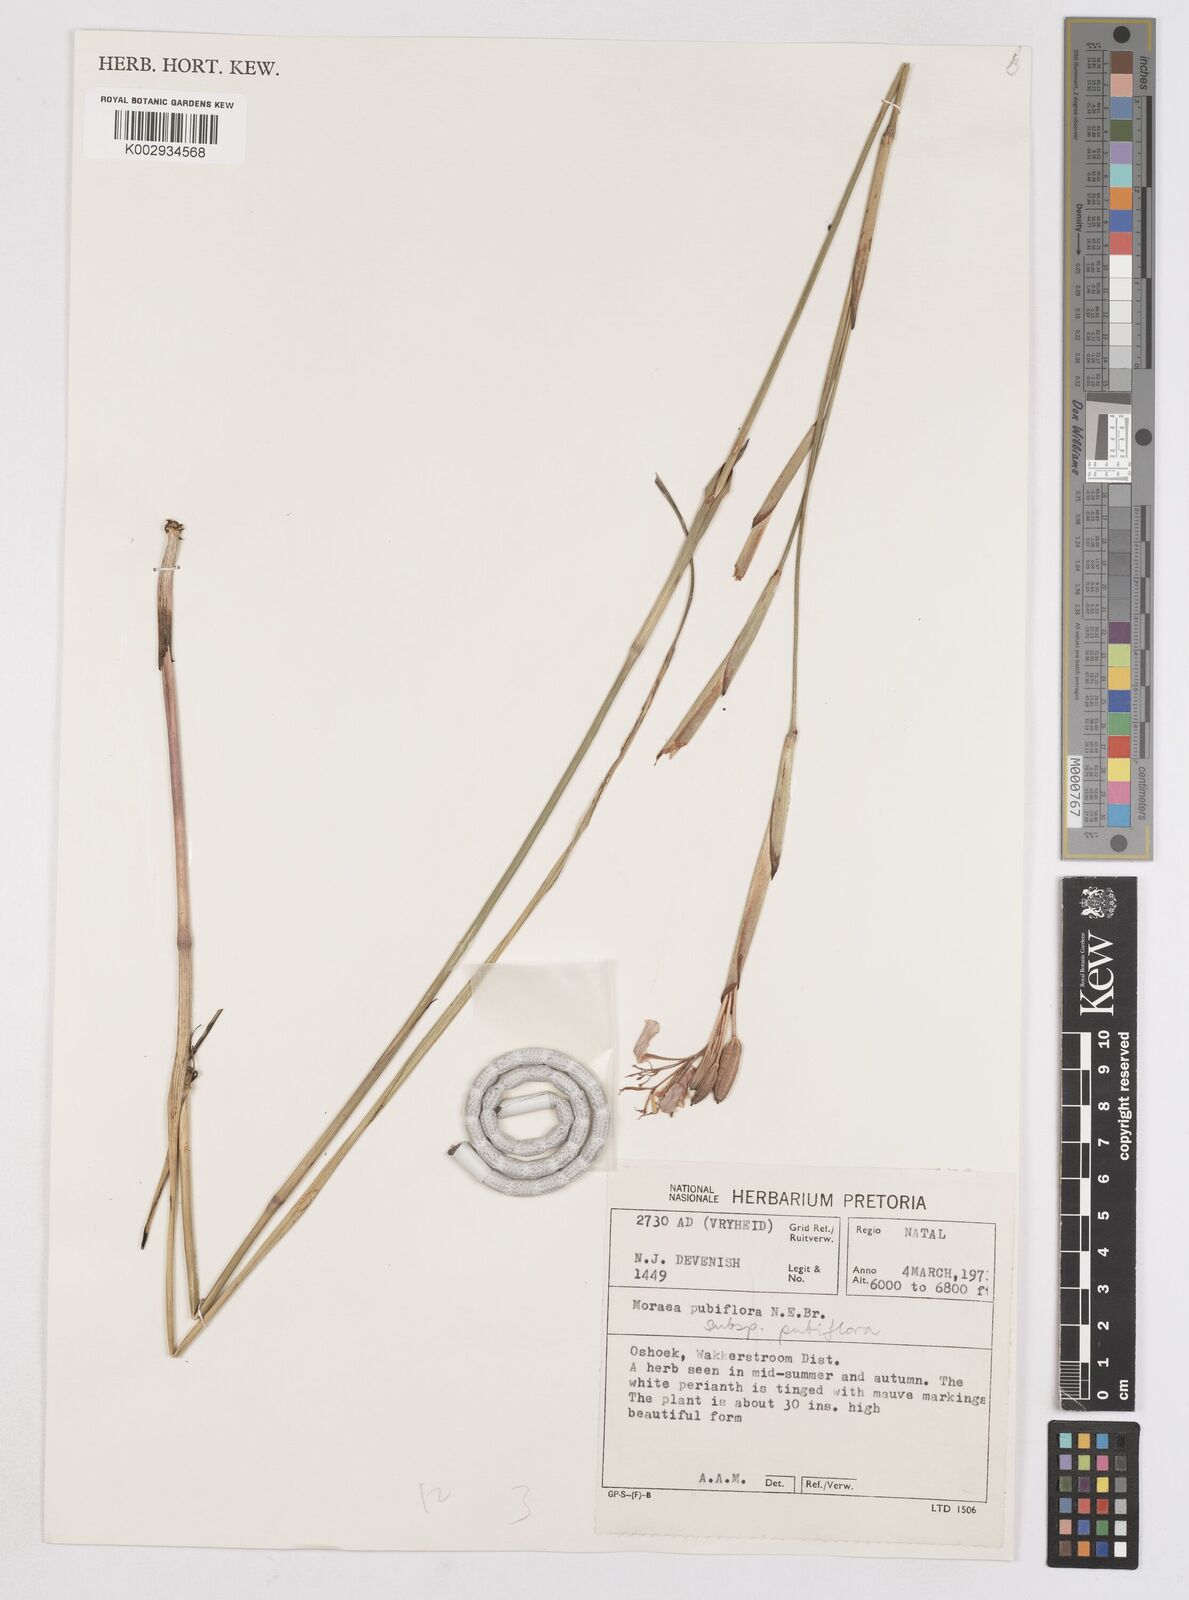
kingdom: Plantae
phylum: Tracheophyta
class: Liliopsida
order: Asparagales
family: Iridaceae
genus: Moraea
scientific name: Moraea pubiflora
